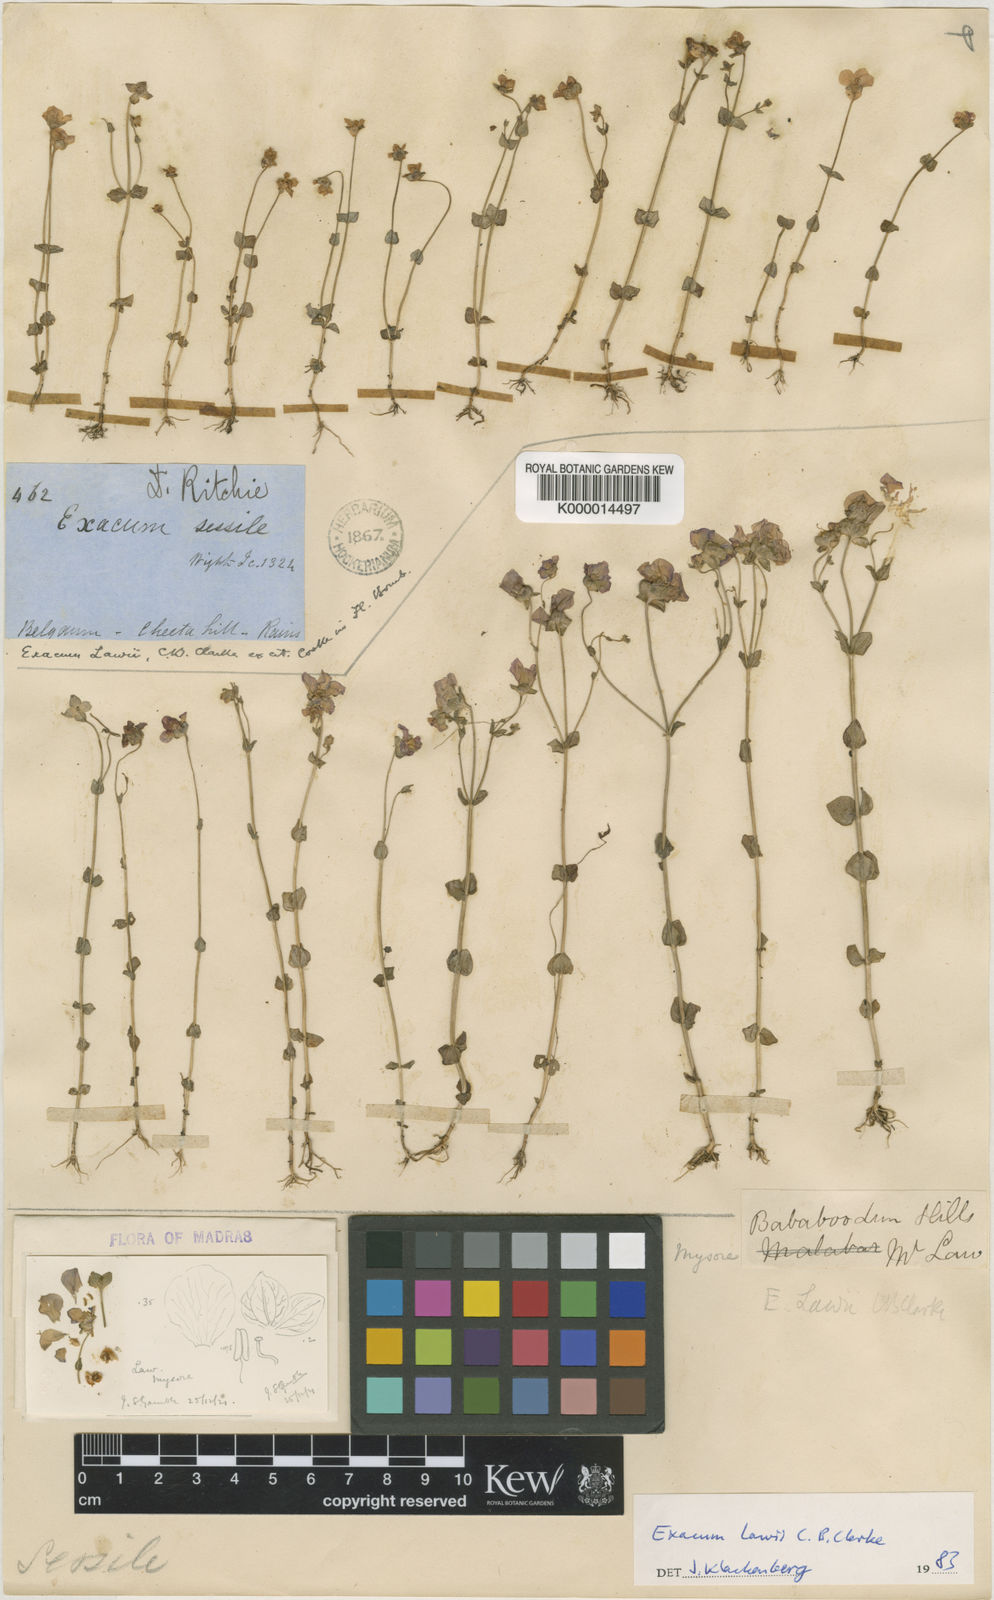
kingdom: Plantae
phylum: Tracheophyta
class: Magnoliopsida
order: Gentianales
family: Gentianaceae
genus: Exacum
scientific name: Exacum lawii
